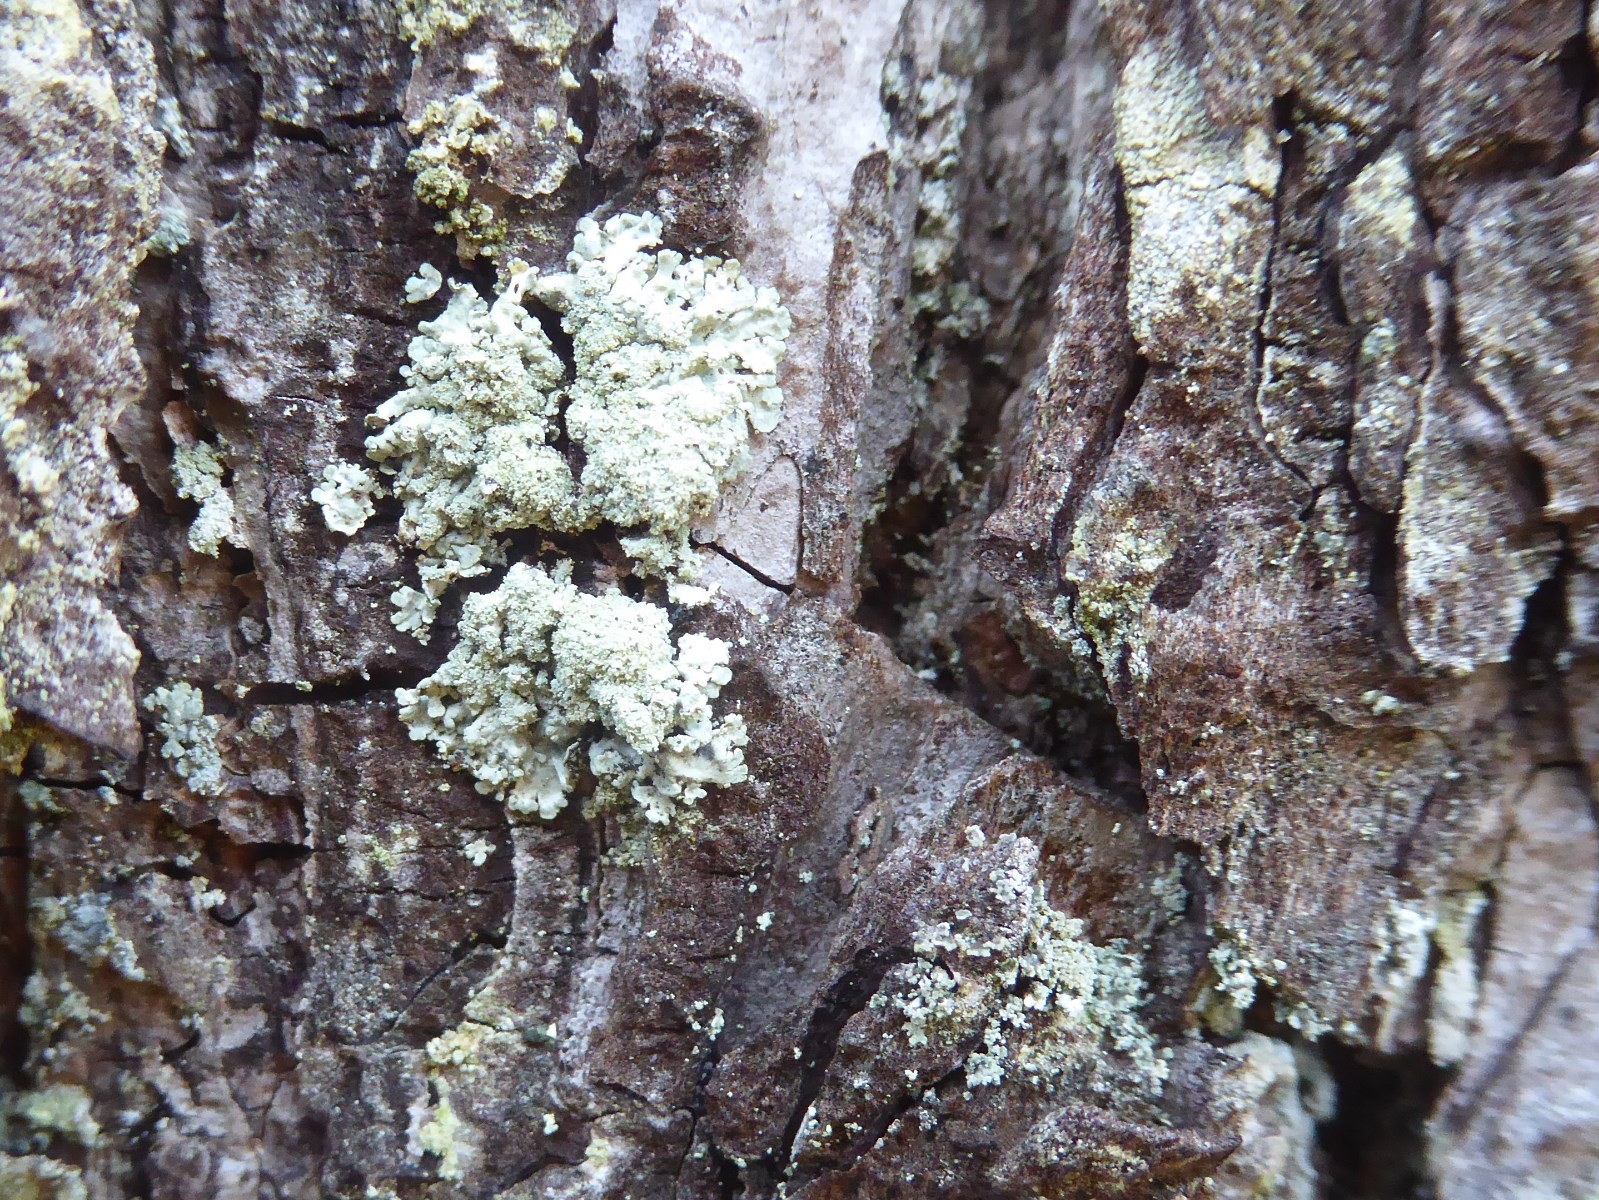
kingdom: Fungi
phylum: Ascomycota
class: Lecanoromycetes
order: Lecanorales
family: Parmeliaceae
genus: Parmeliopsis
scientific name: Parmeliopsis ambigua
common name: gul stolpelav
